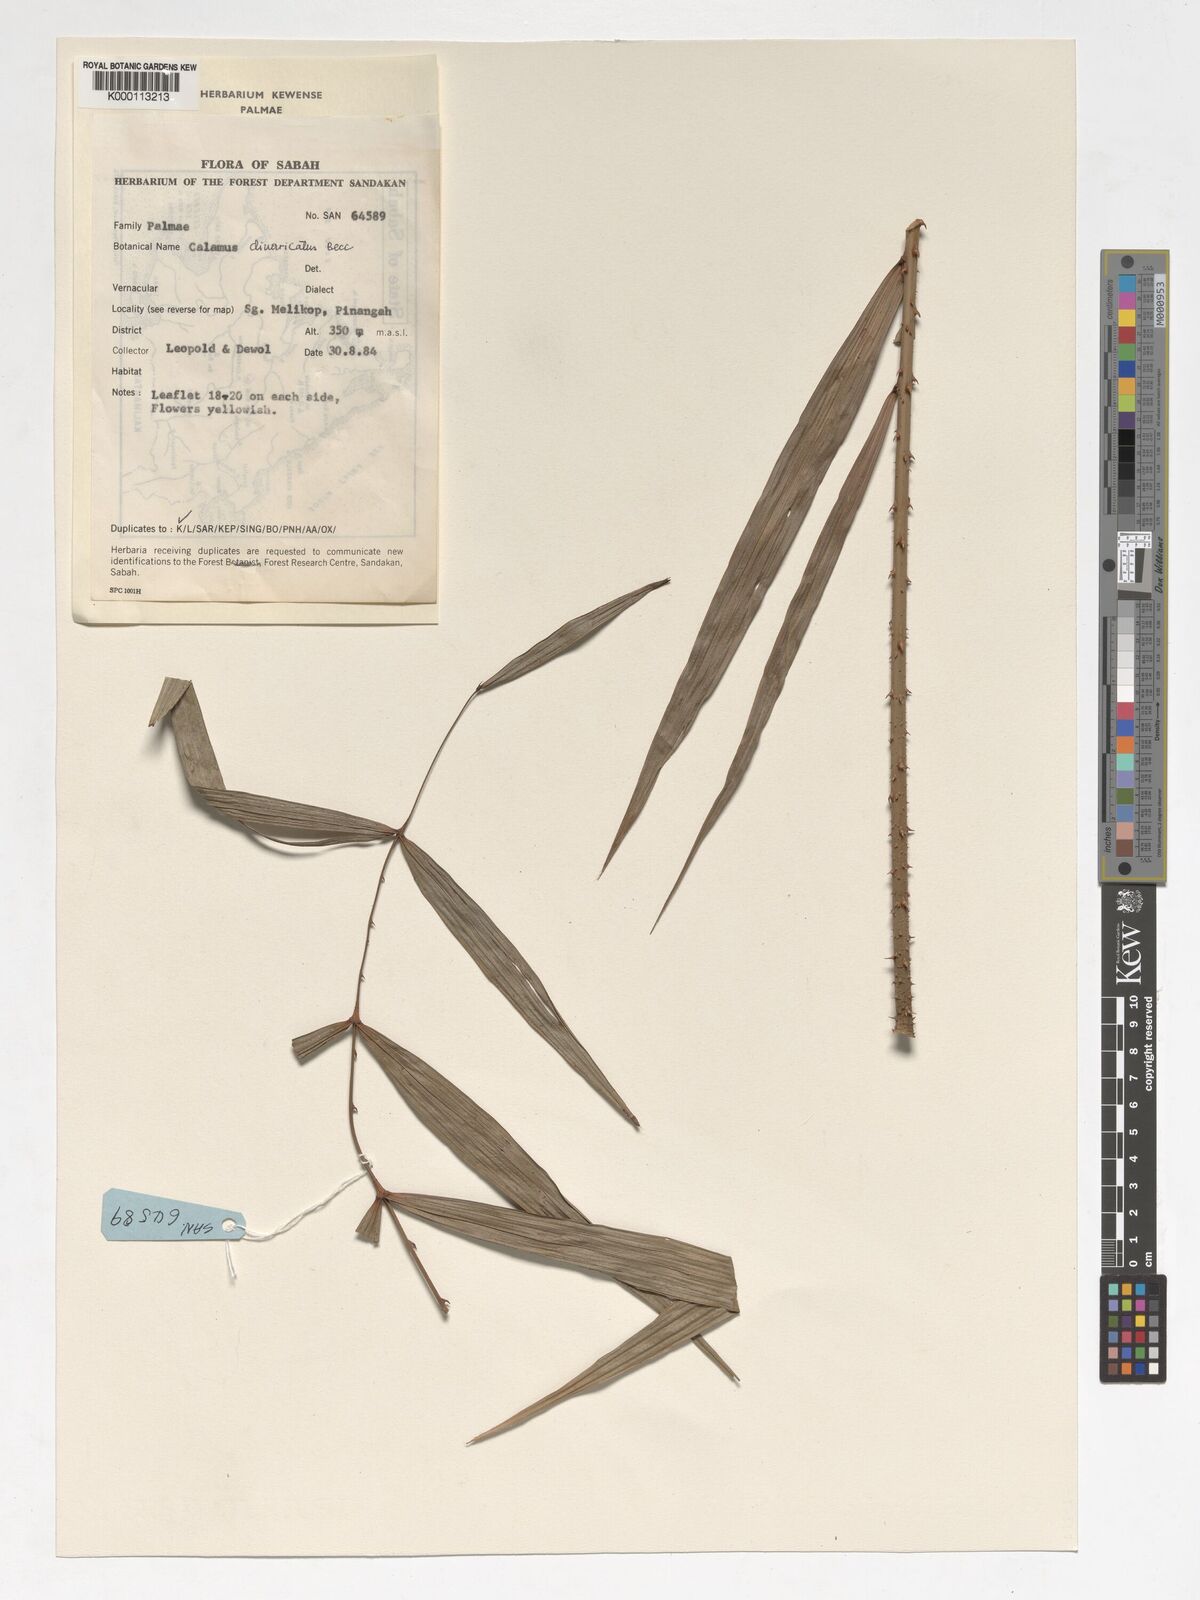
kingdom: Plantae
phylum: Tracheophyta
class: Liliopsida
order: Arecales
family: Arecaceae
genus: Calamus
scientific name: Calamus divaricatus
